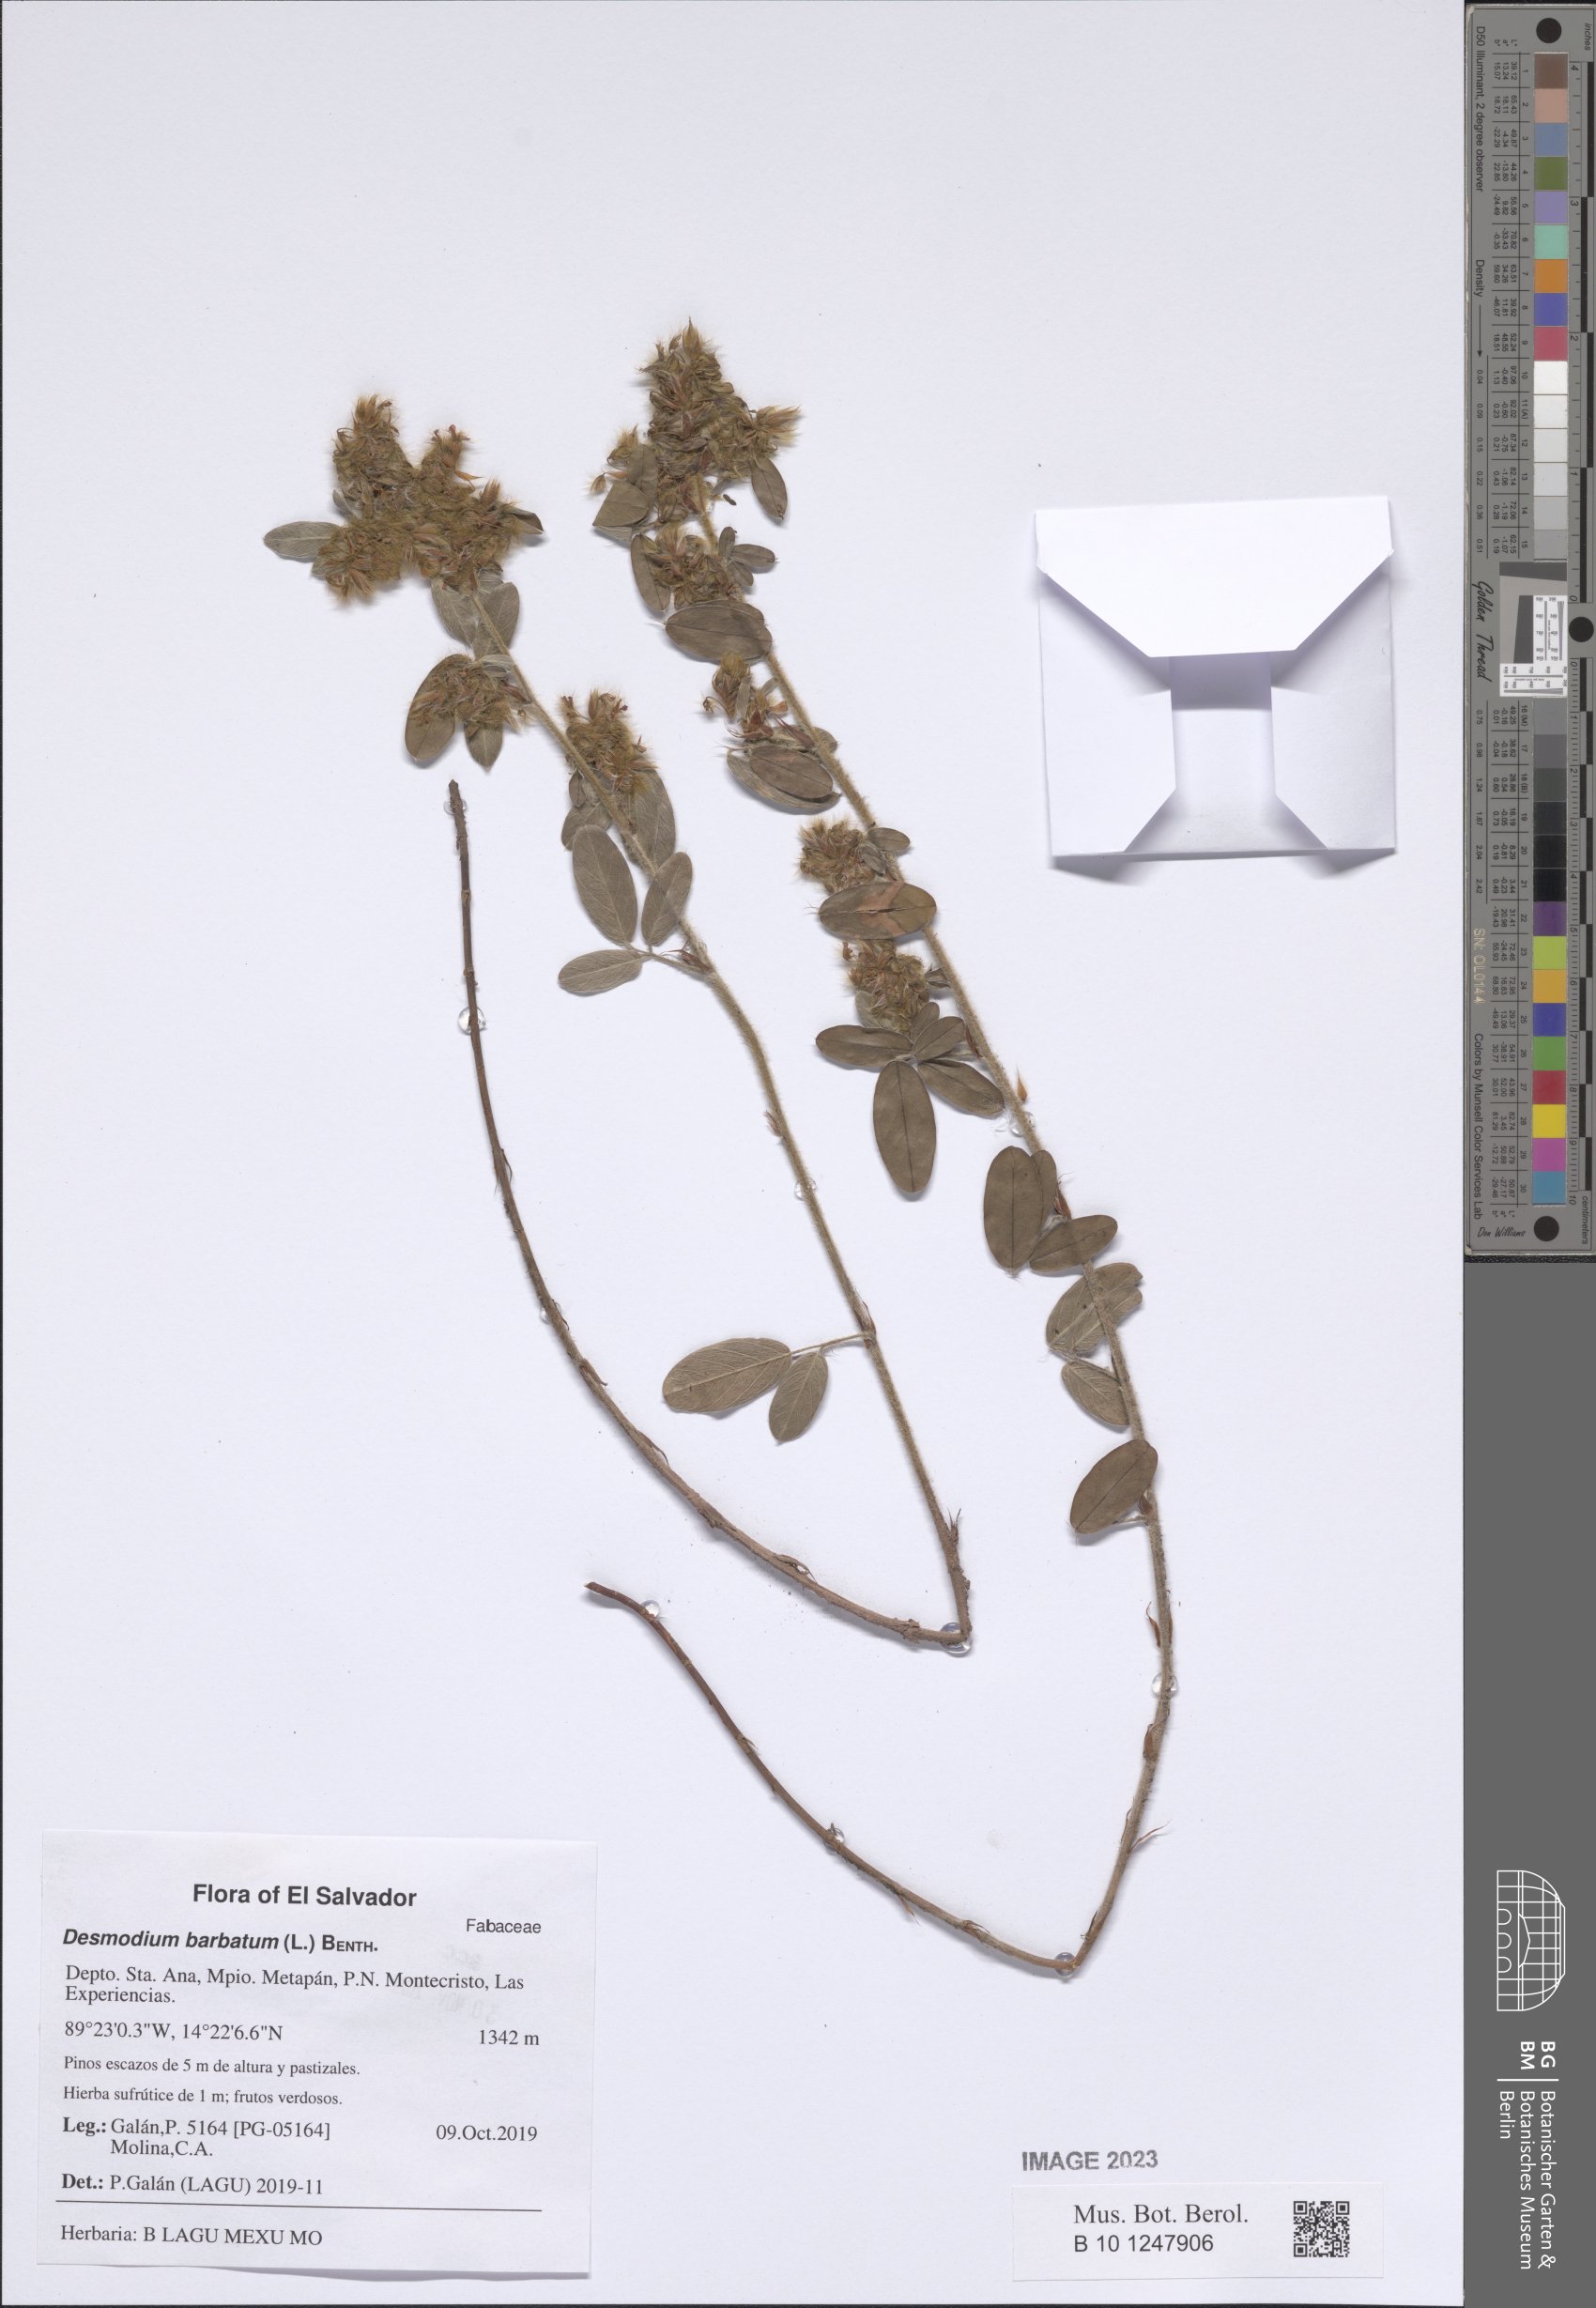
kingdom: Plantae
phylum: Tracheophyta
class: Magnoliopsida
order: Fabales
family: Fabaceae
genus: Grona
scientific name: Grona barbata
